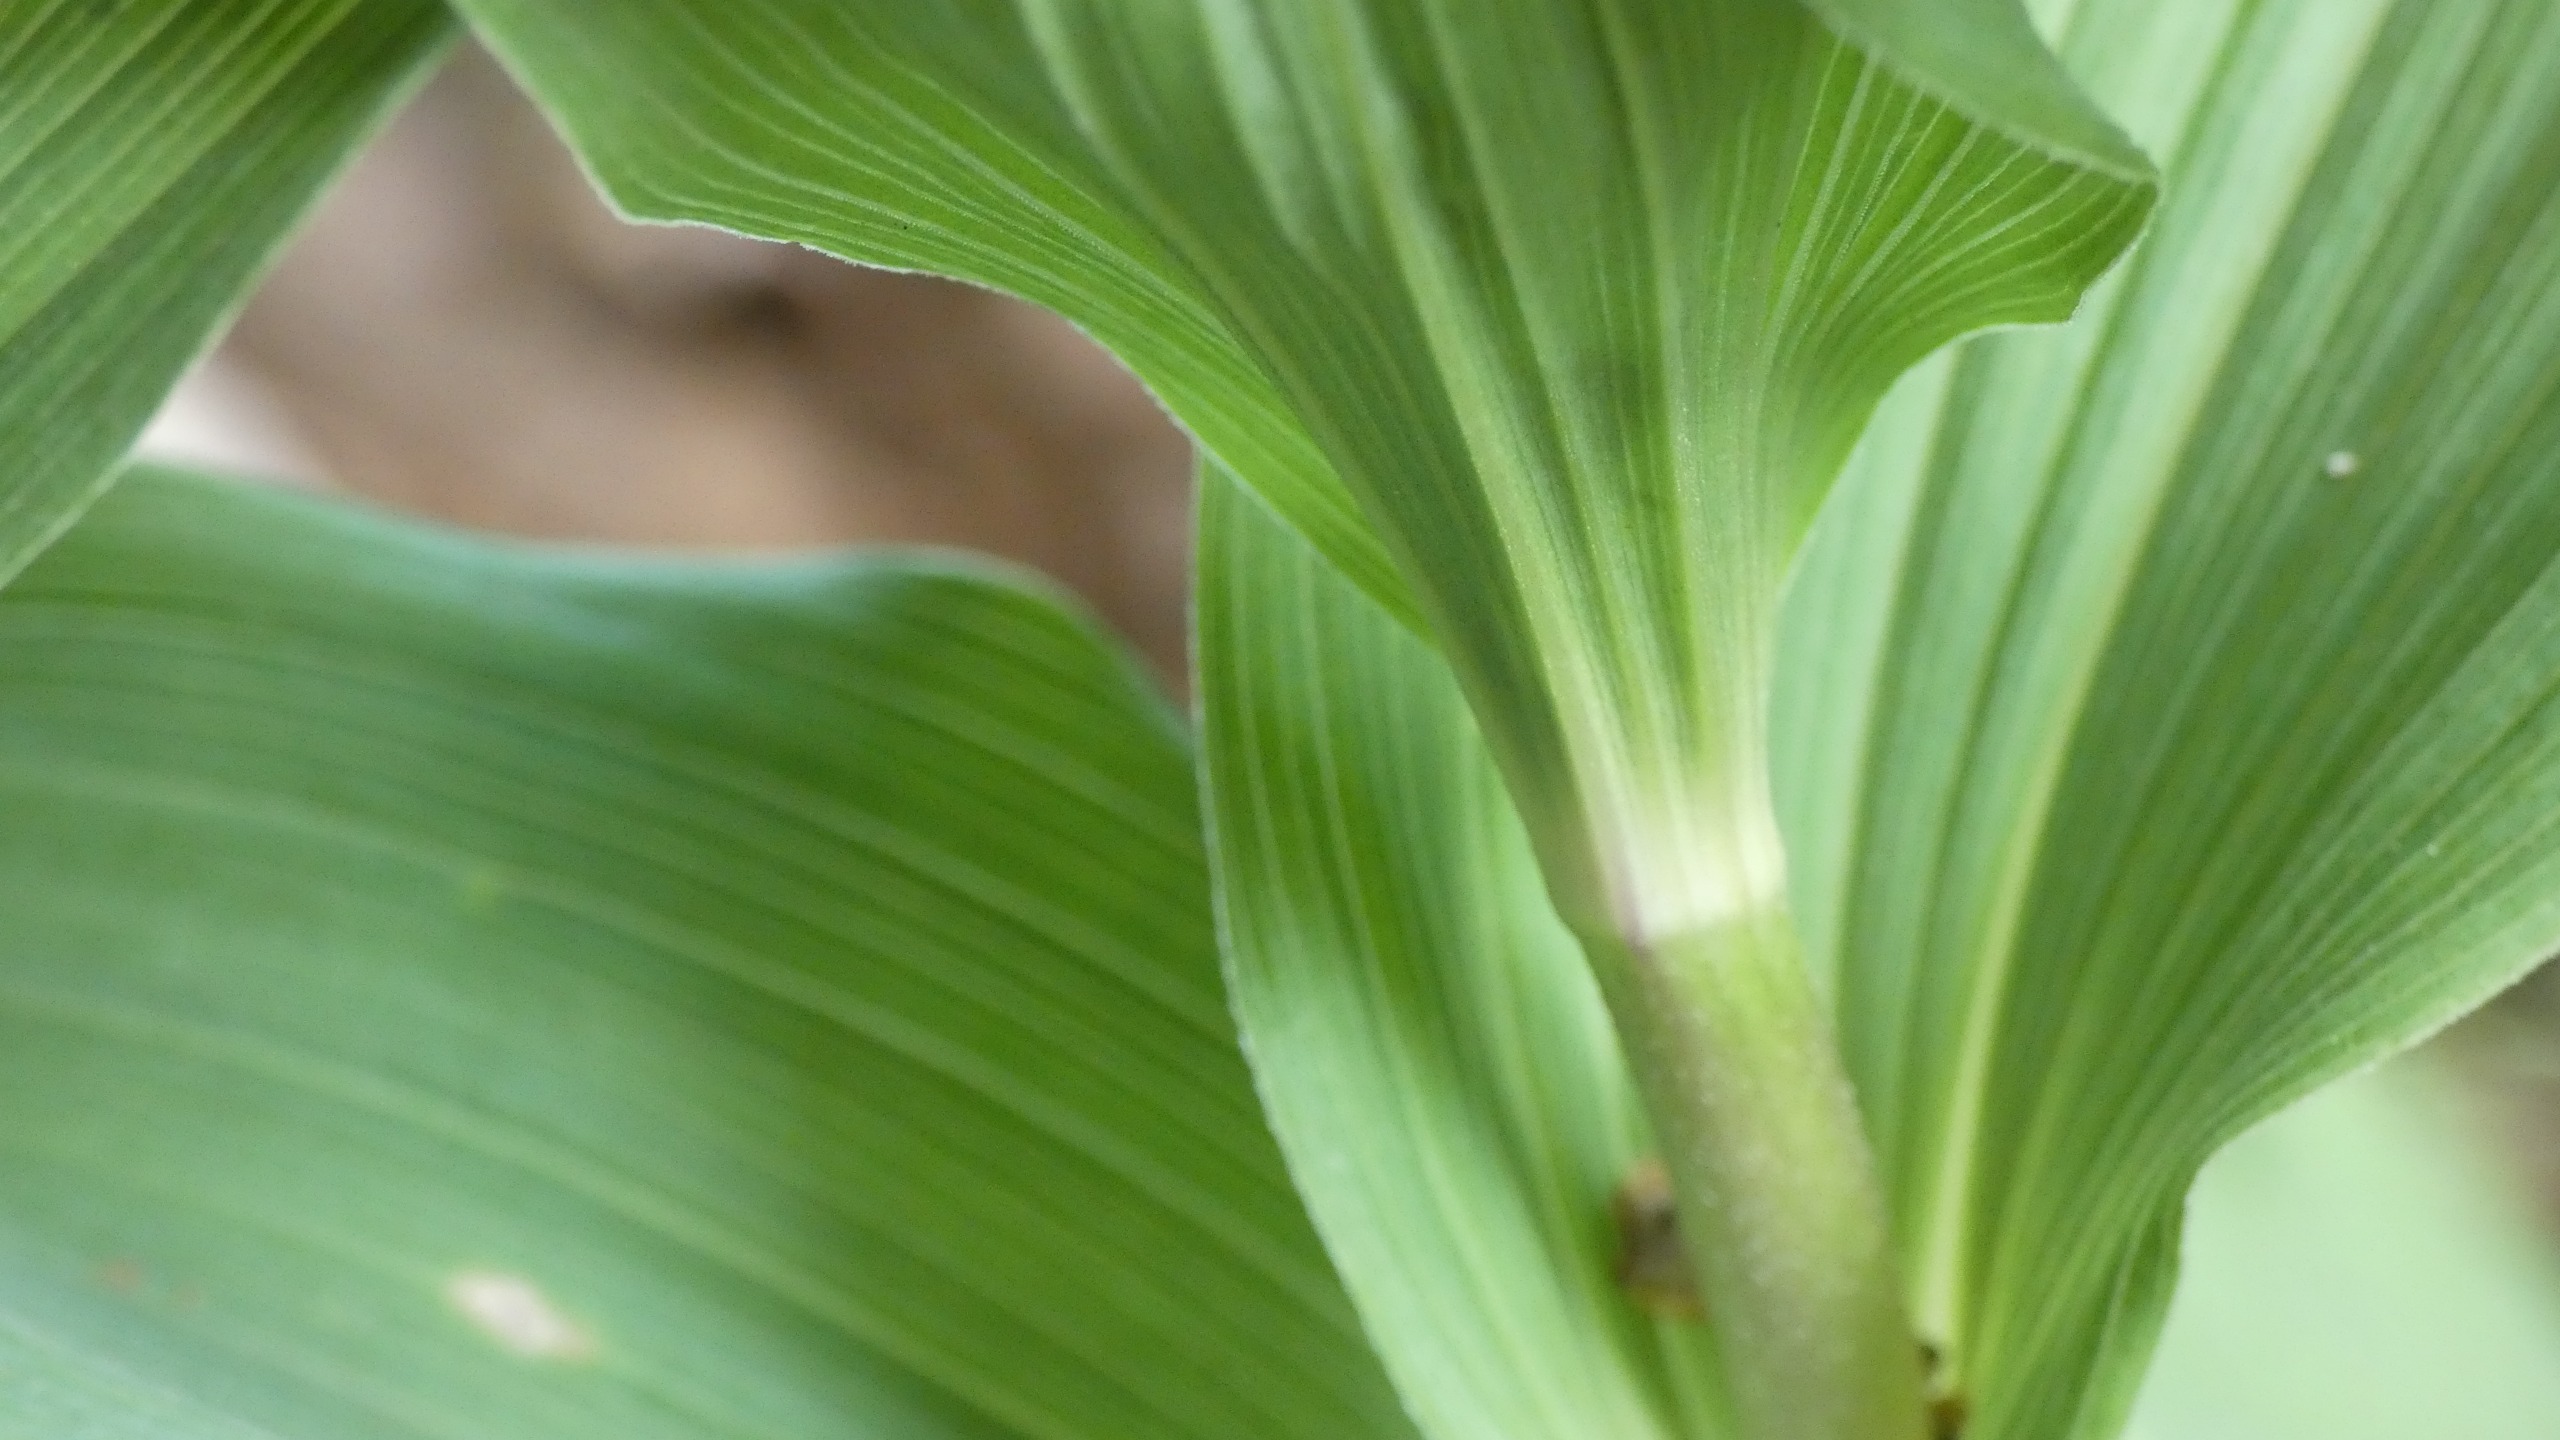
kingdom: Plantae
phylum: Tracheophyta
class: Liliopsida
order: Asparagales
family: Orchidaceae
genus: Epipactis
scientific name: Epipactis helleborine
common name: Skov-hullæbe
